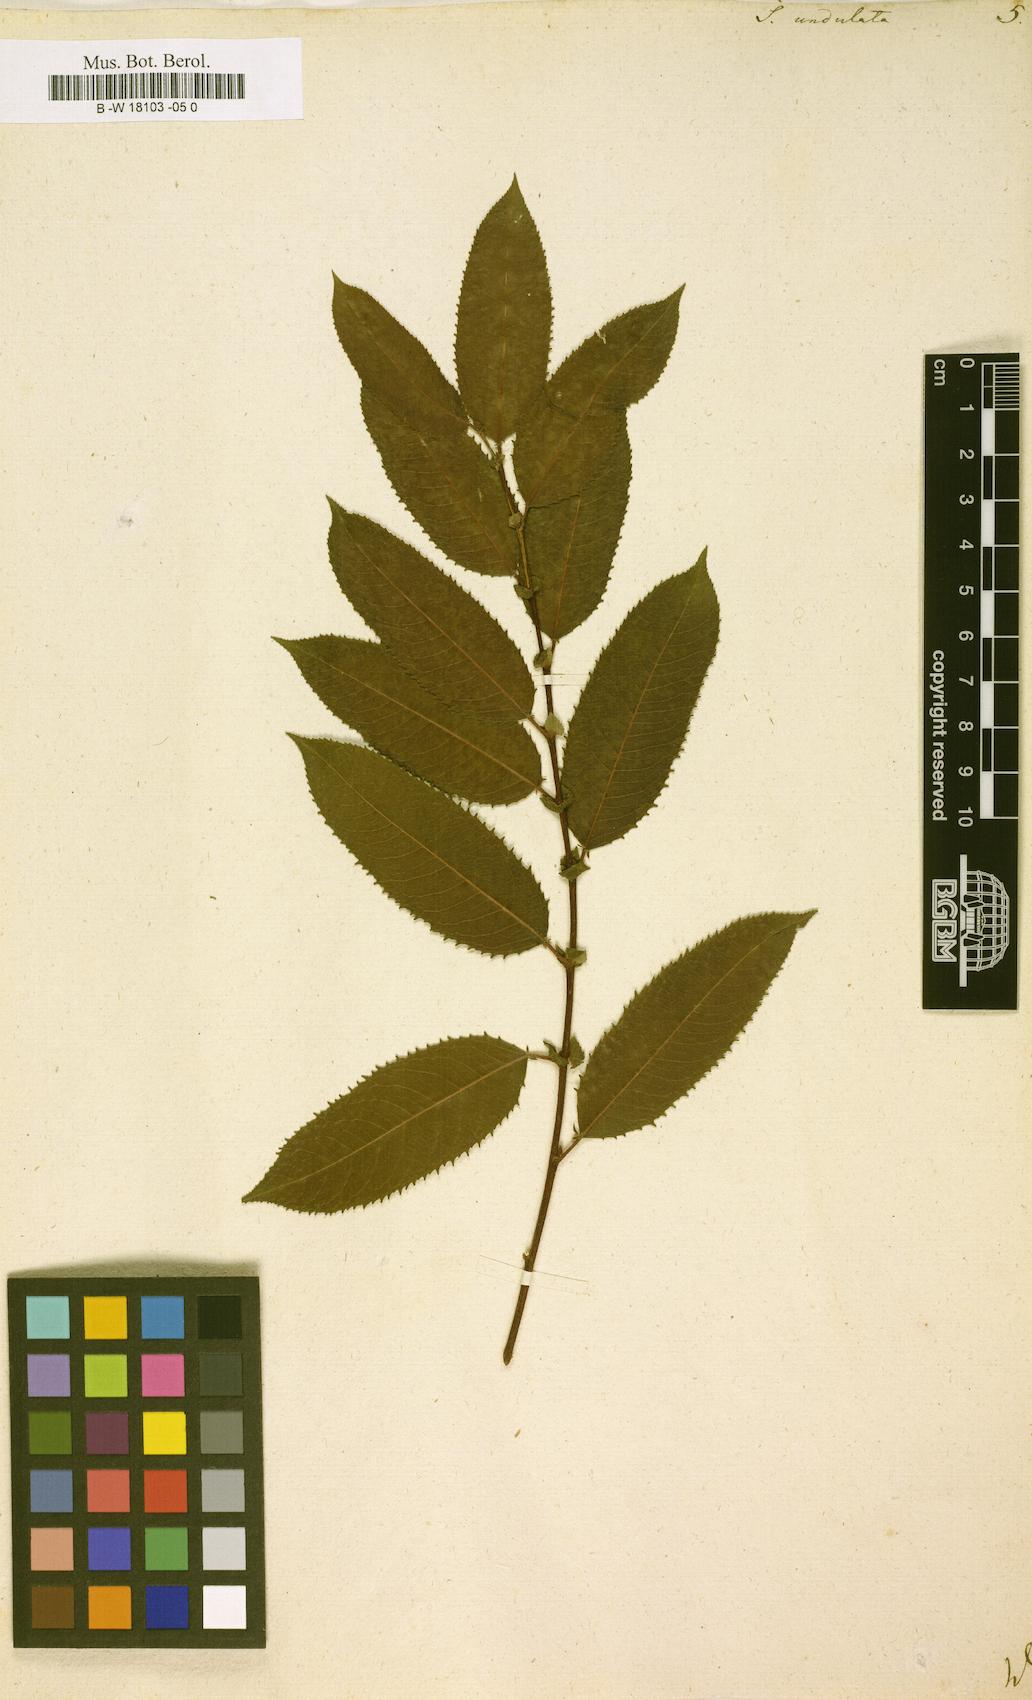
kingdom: Plantae
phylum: Tracheophyta
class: Magnoliopsida
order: Malpighiales
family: Salicaceae
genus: Salix
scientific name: Salix undulata
